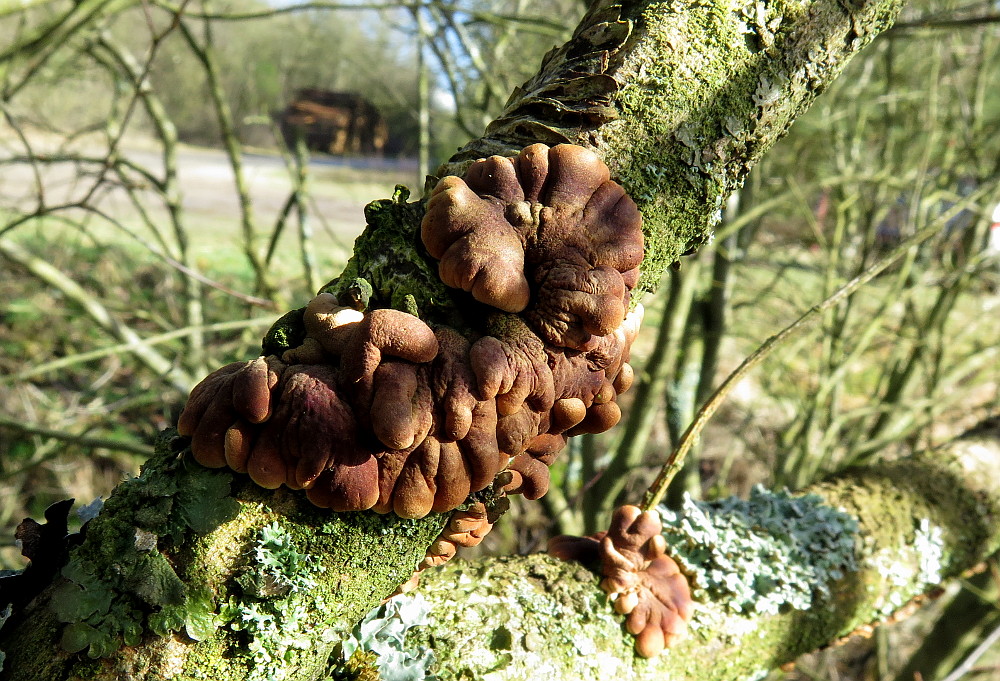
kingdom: Fungi
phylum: Ascomycota
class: Sordariomycetes
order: Hypocreales
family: Hypocreaceae
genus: Hypocreopsis
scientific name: Hypocreopsis lichenoides
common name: pilfinger
